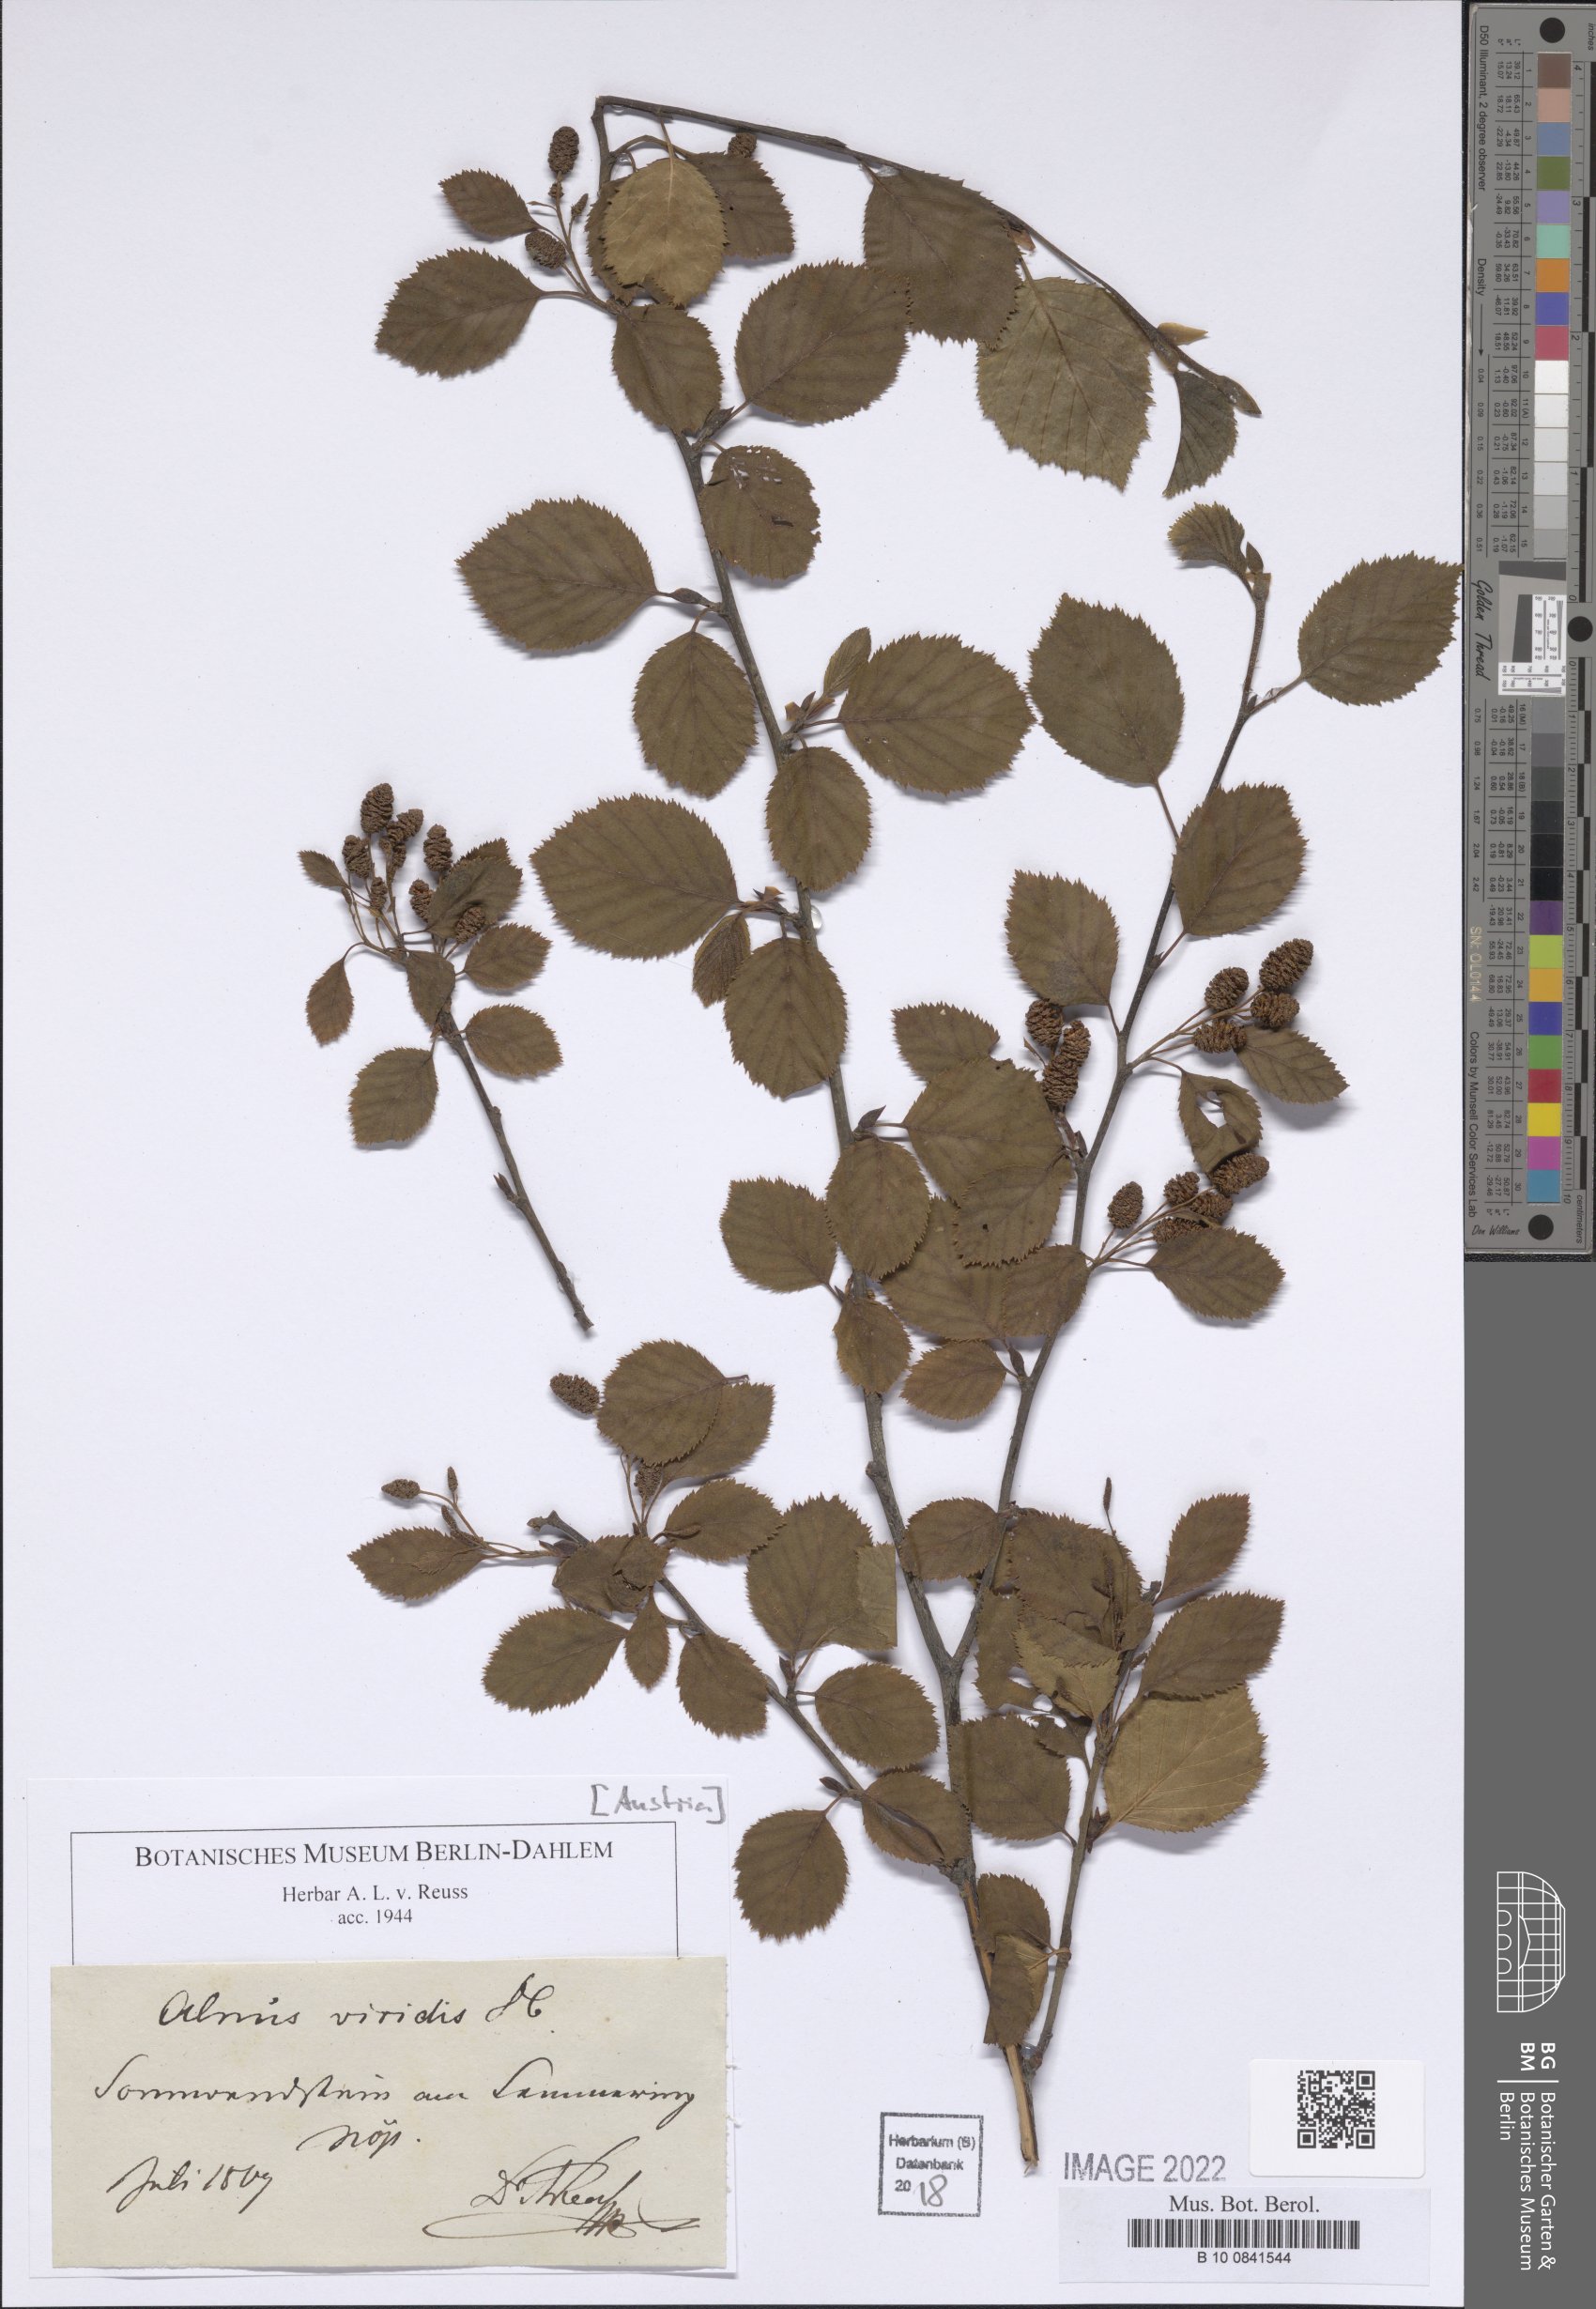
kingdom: Plantae
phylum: Tracheophyta
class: Magnoliopsida
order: Fagales
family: Betulaceae
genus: Alnus
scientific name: Alnus alnobetula
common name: Green alder
